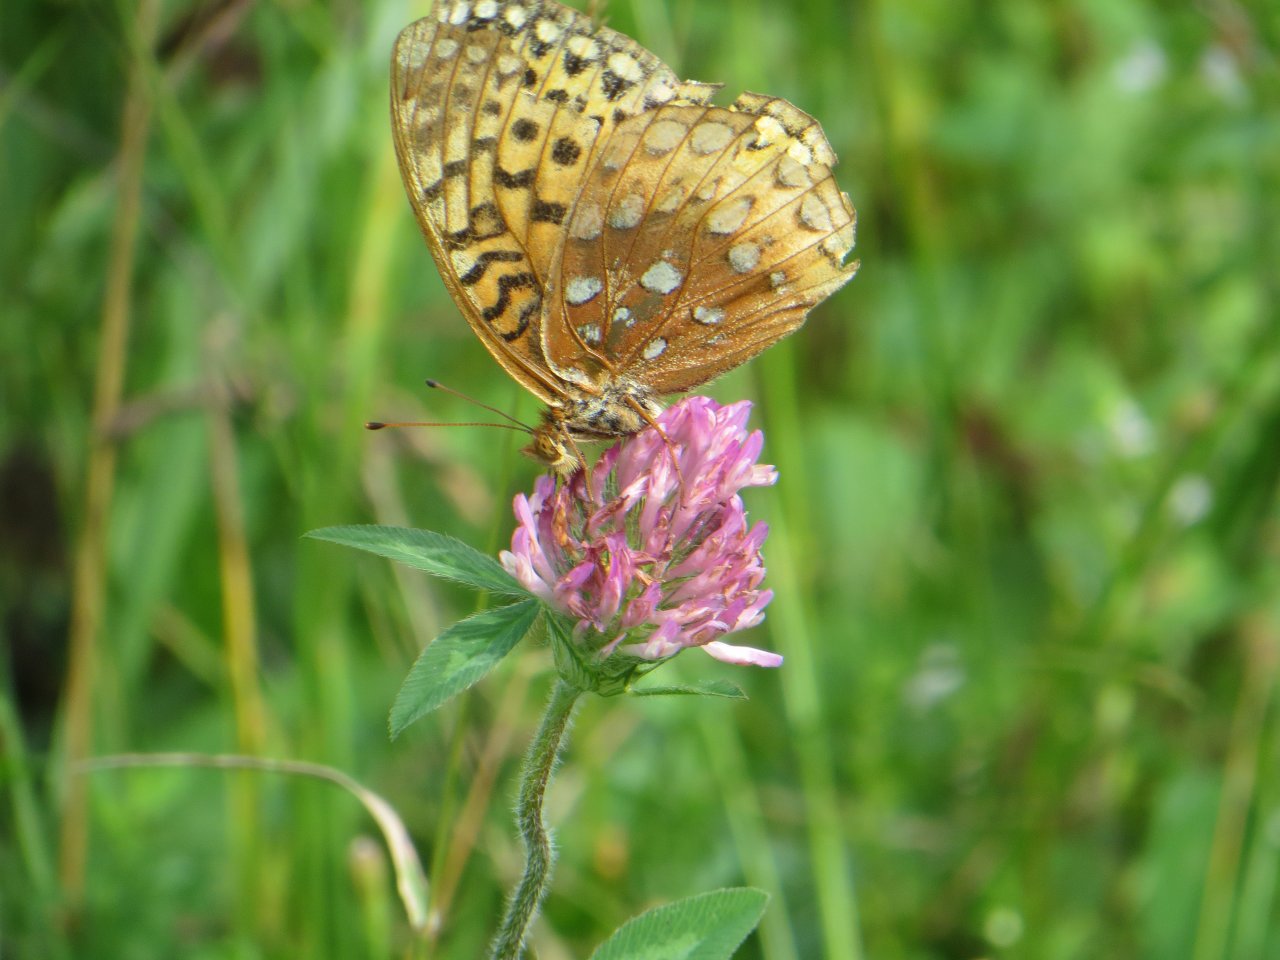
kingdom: Animalia
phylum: Arthropoda
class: Insecta
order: Lepidoptera
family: Nymphalidae
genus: Speyeria
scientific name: Speyeria cybele
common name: Great Spangled Fritillary
